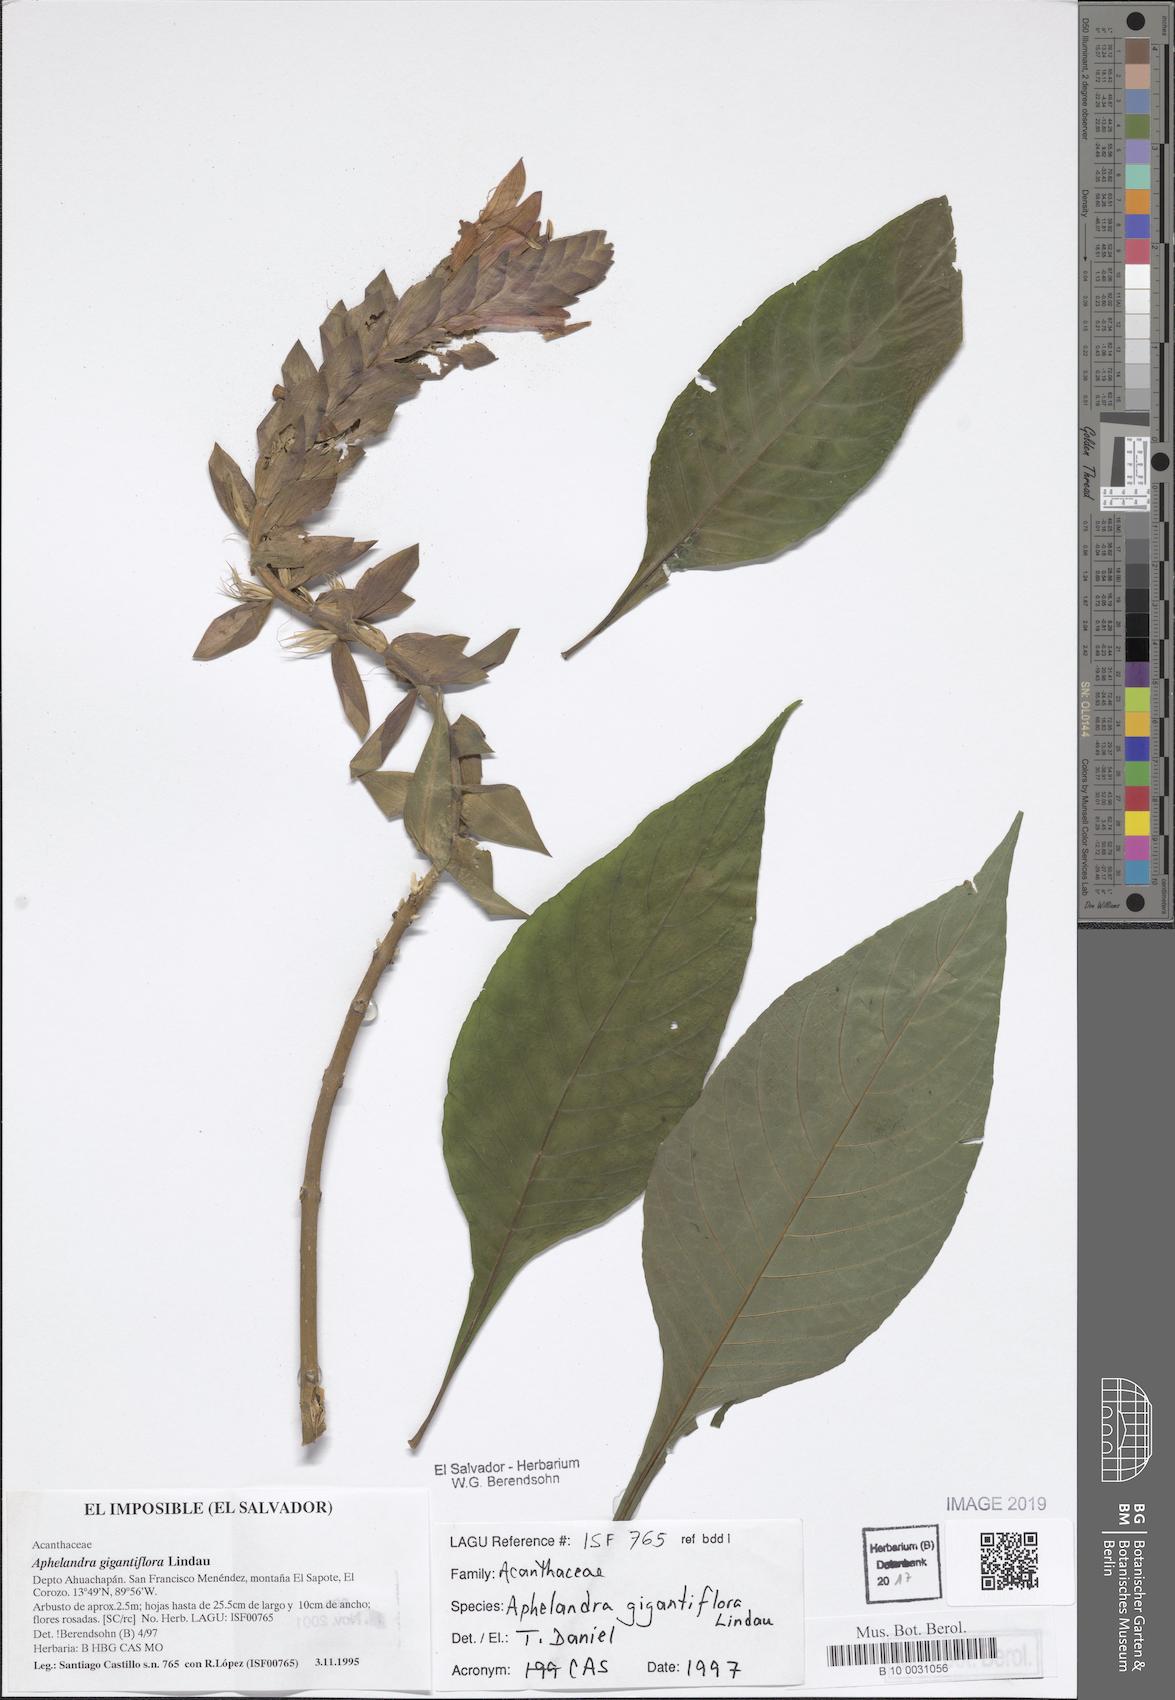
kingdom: Plantae
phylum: Tracheophyta
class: Magnoliopsida
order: Lamiales
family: Acanthaceae
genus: Aphelandra
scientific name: Aphelandra gigantiflora
